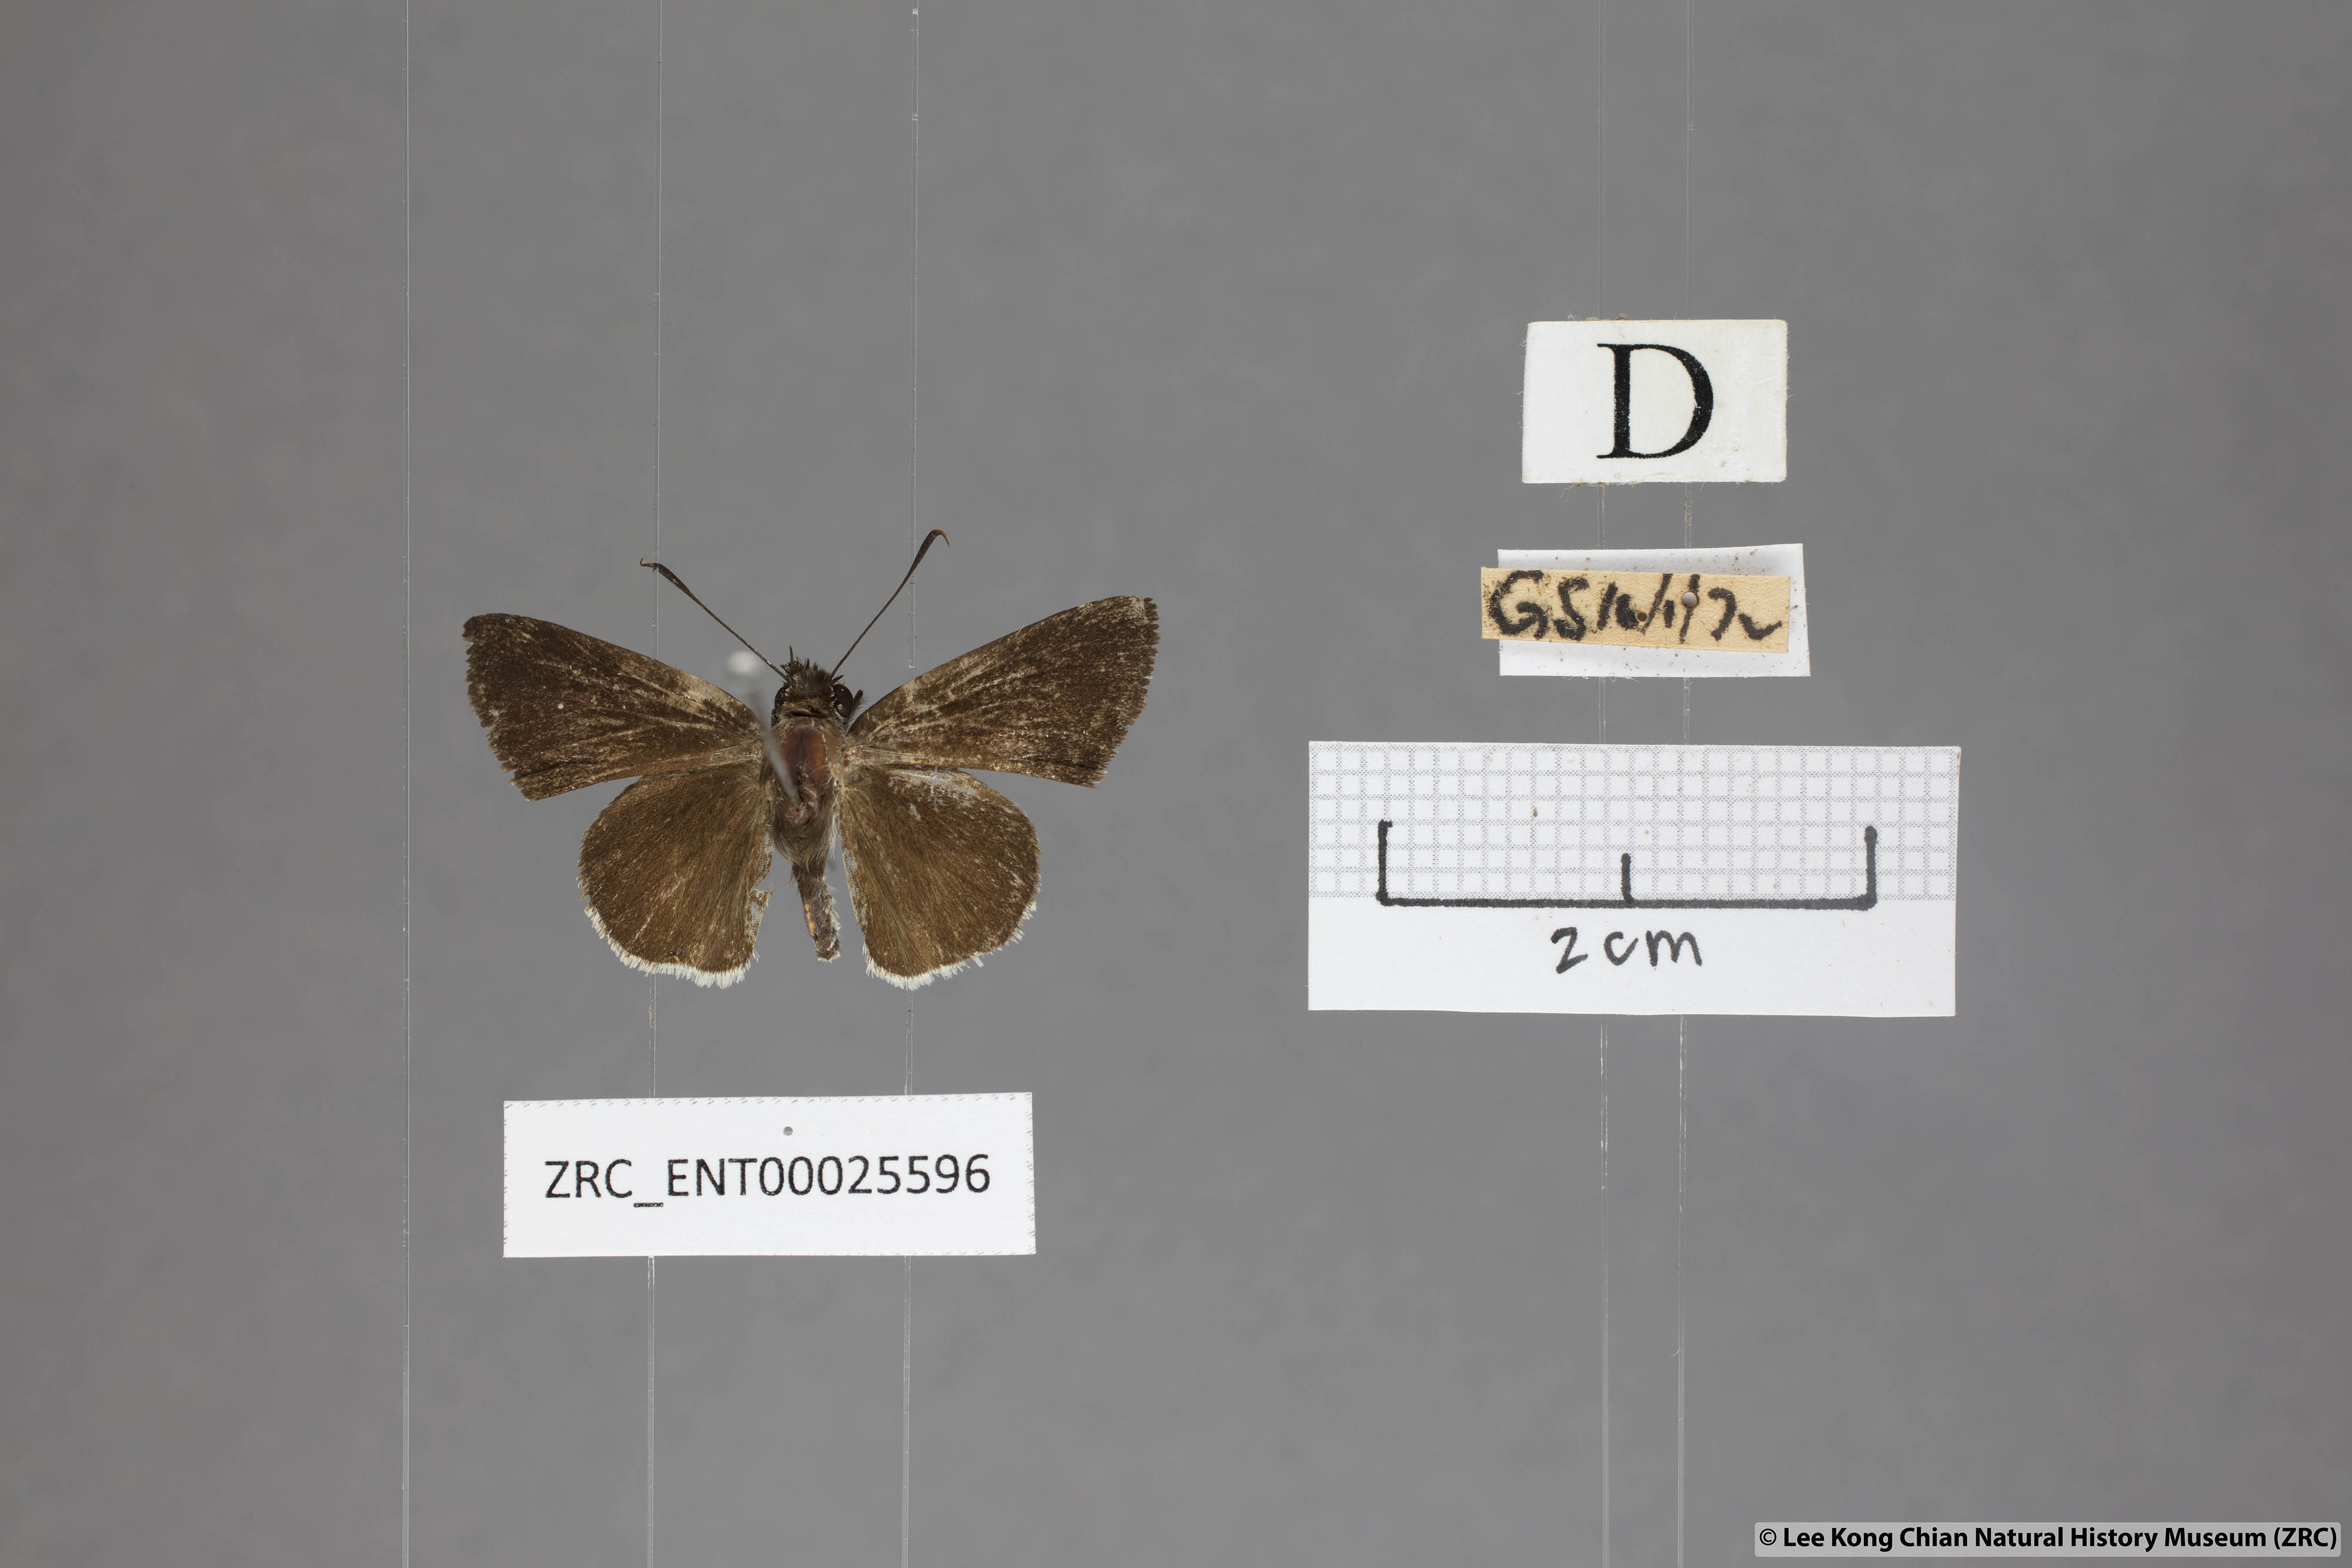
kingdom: Animalia
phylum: Arthropoda
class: Insecta
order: Lepidoptera
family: Hesperiidae
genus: Suastus
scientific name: Suastus minuta
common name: Small palm bob
